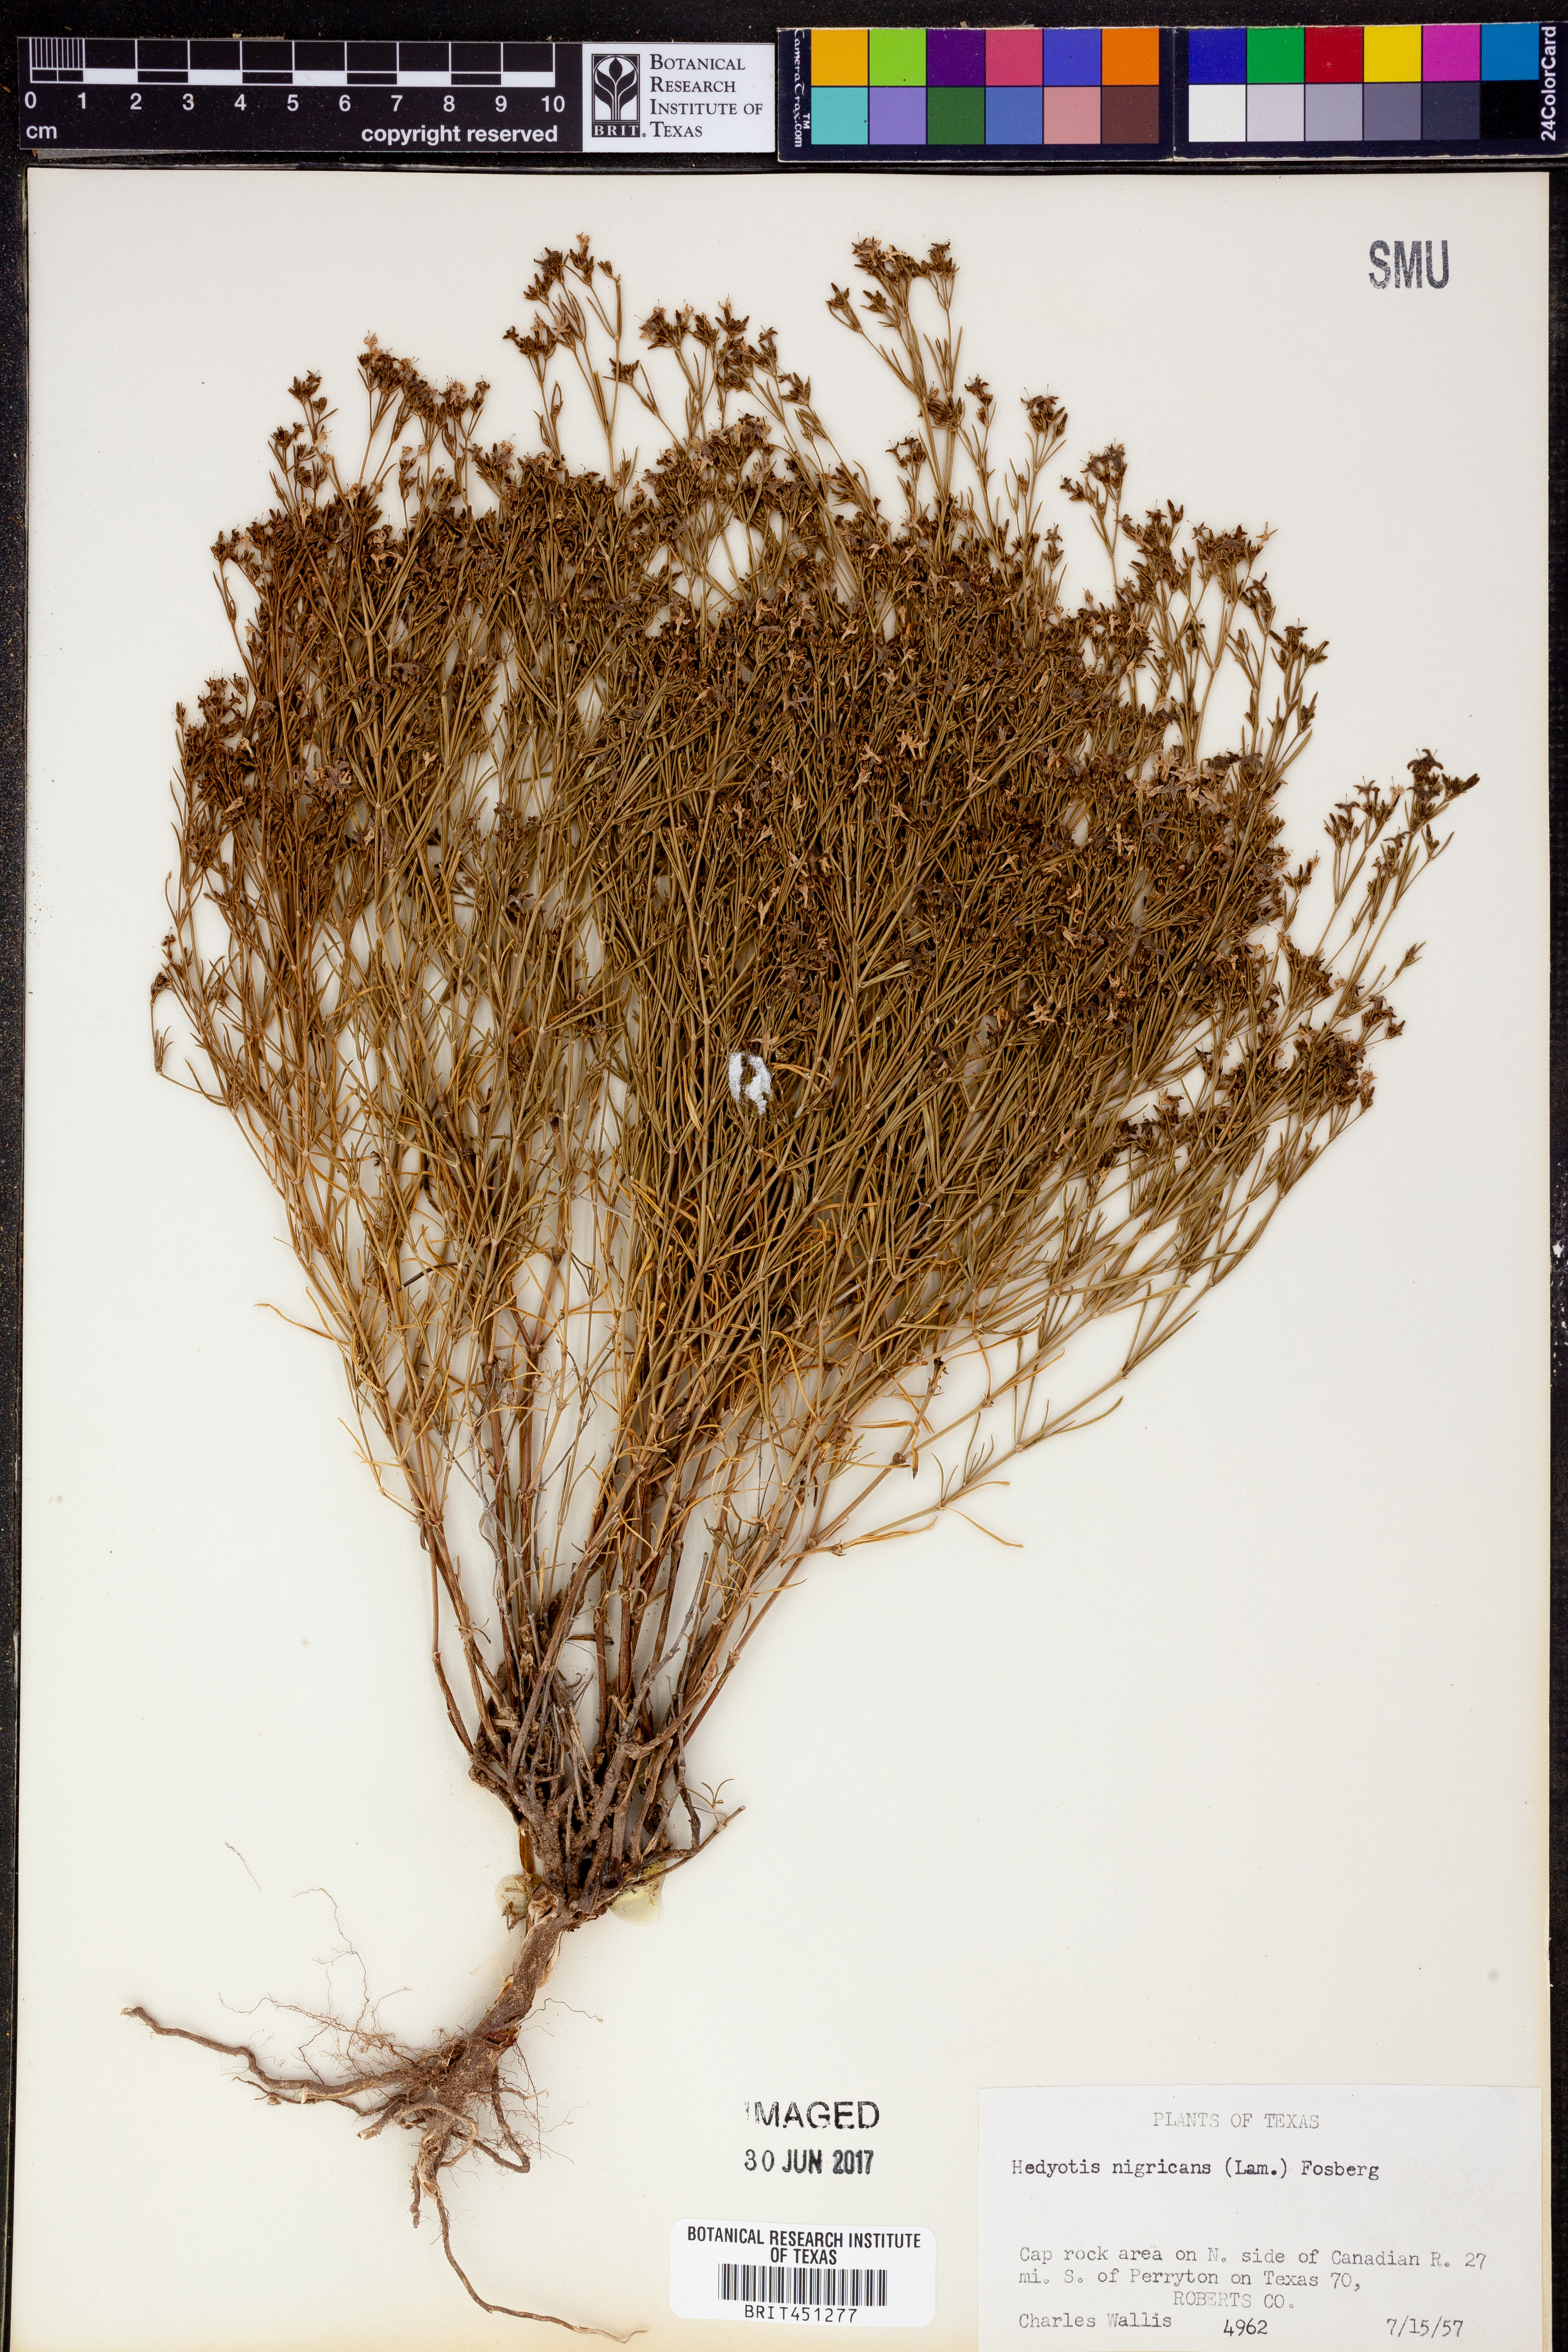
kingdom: Plantae
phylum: Tracheophyta
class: Magnoliopsida
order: Gentianales
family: Rubiaceae
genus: Stenaria
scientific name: Stenaria nigricans
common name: Diamondflowers
